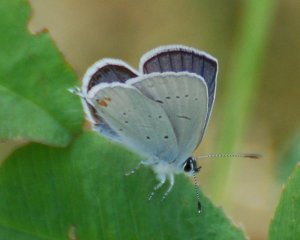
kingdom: Animalia
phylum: Arthropoda
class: Insecta
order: Lepidoptera
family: Lycaenidae
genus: Elkalyce
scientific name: Elkalyce amyntula
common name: Western Tailed-Blue
